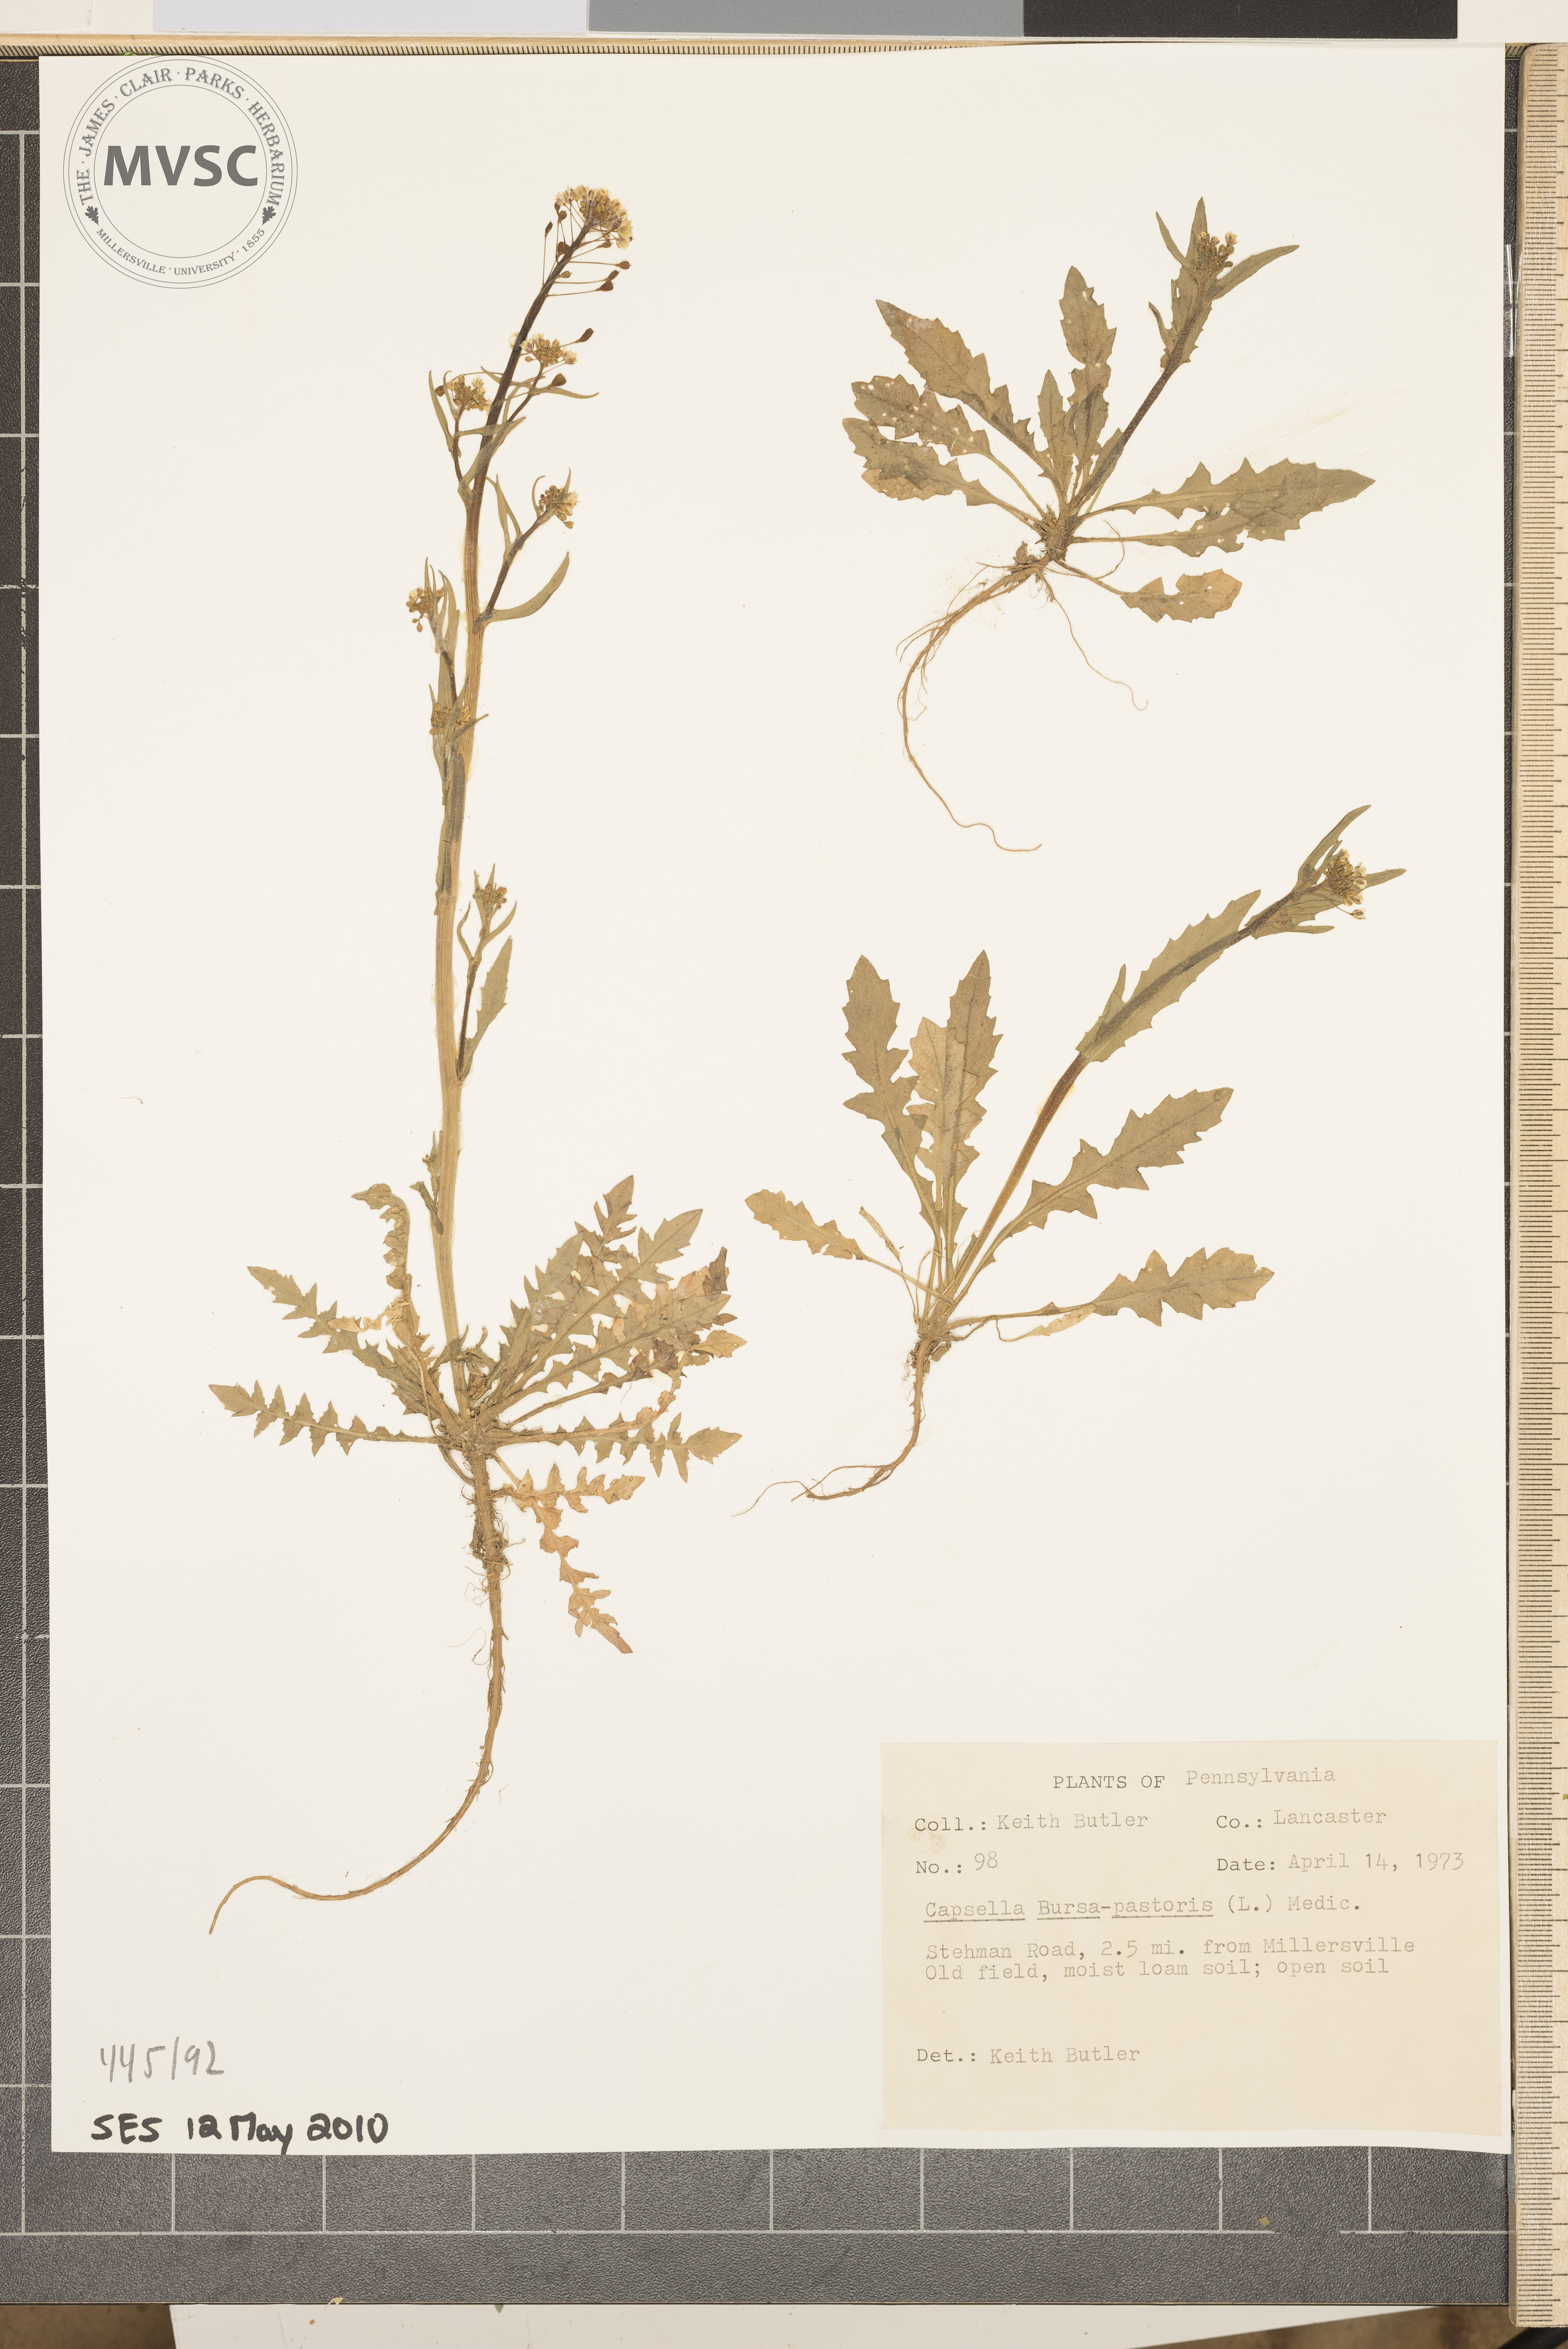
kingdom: Plantae
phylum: Tracheophyta
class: Magnoliopsida
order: Brassicales
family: Brassicaceae
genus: Capsella
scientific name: Capsella bursa-pastoris
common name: Shepherd's purse
